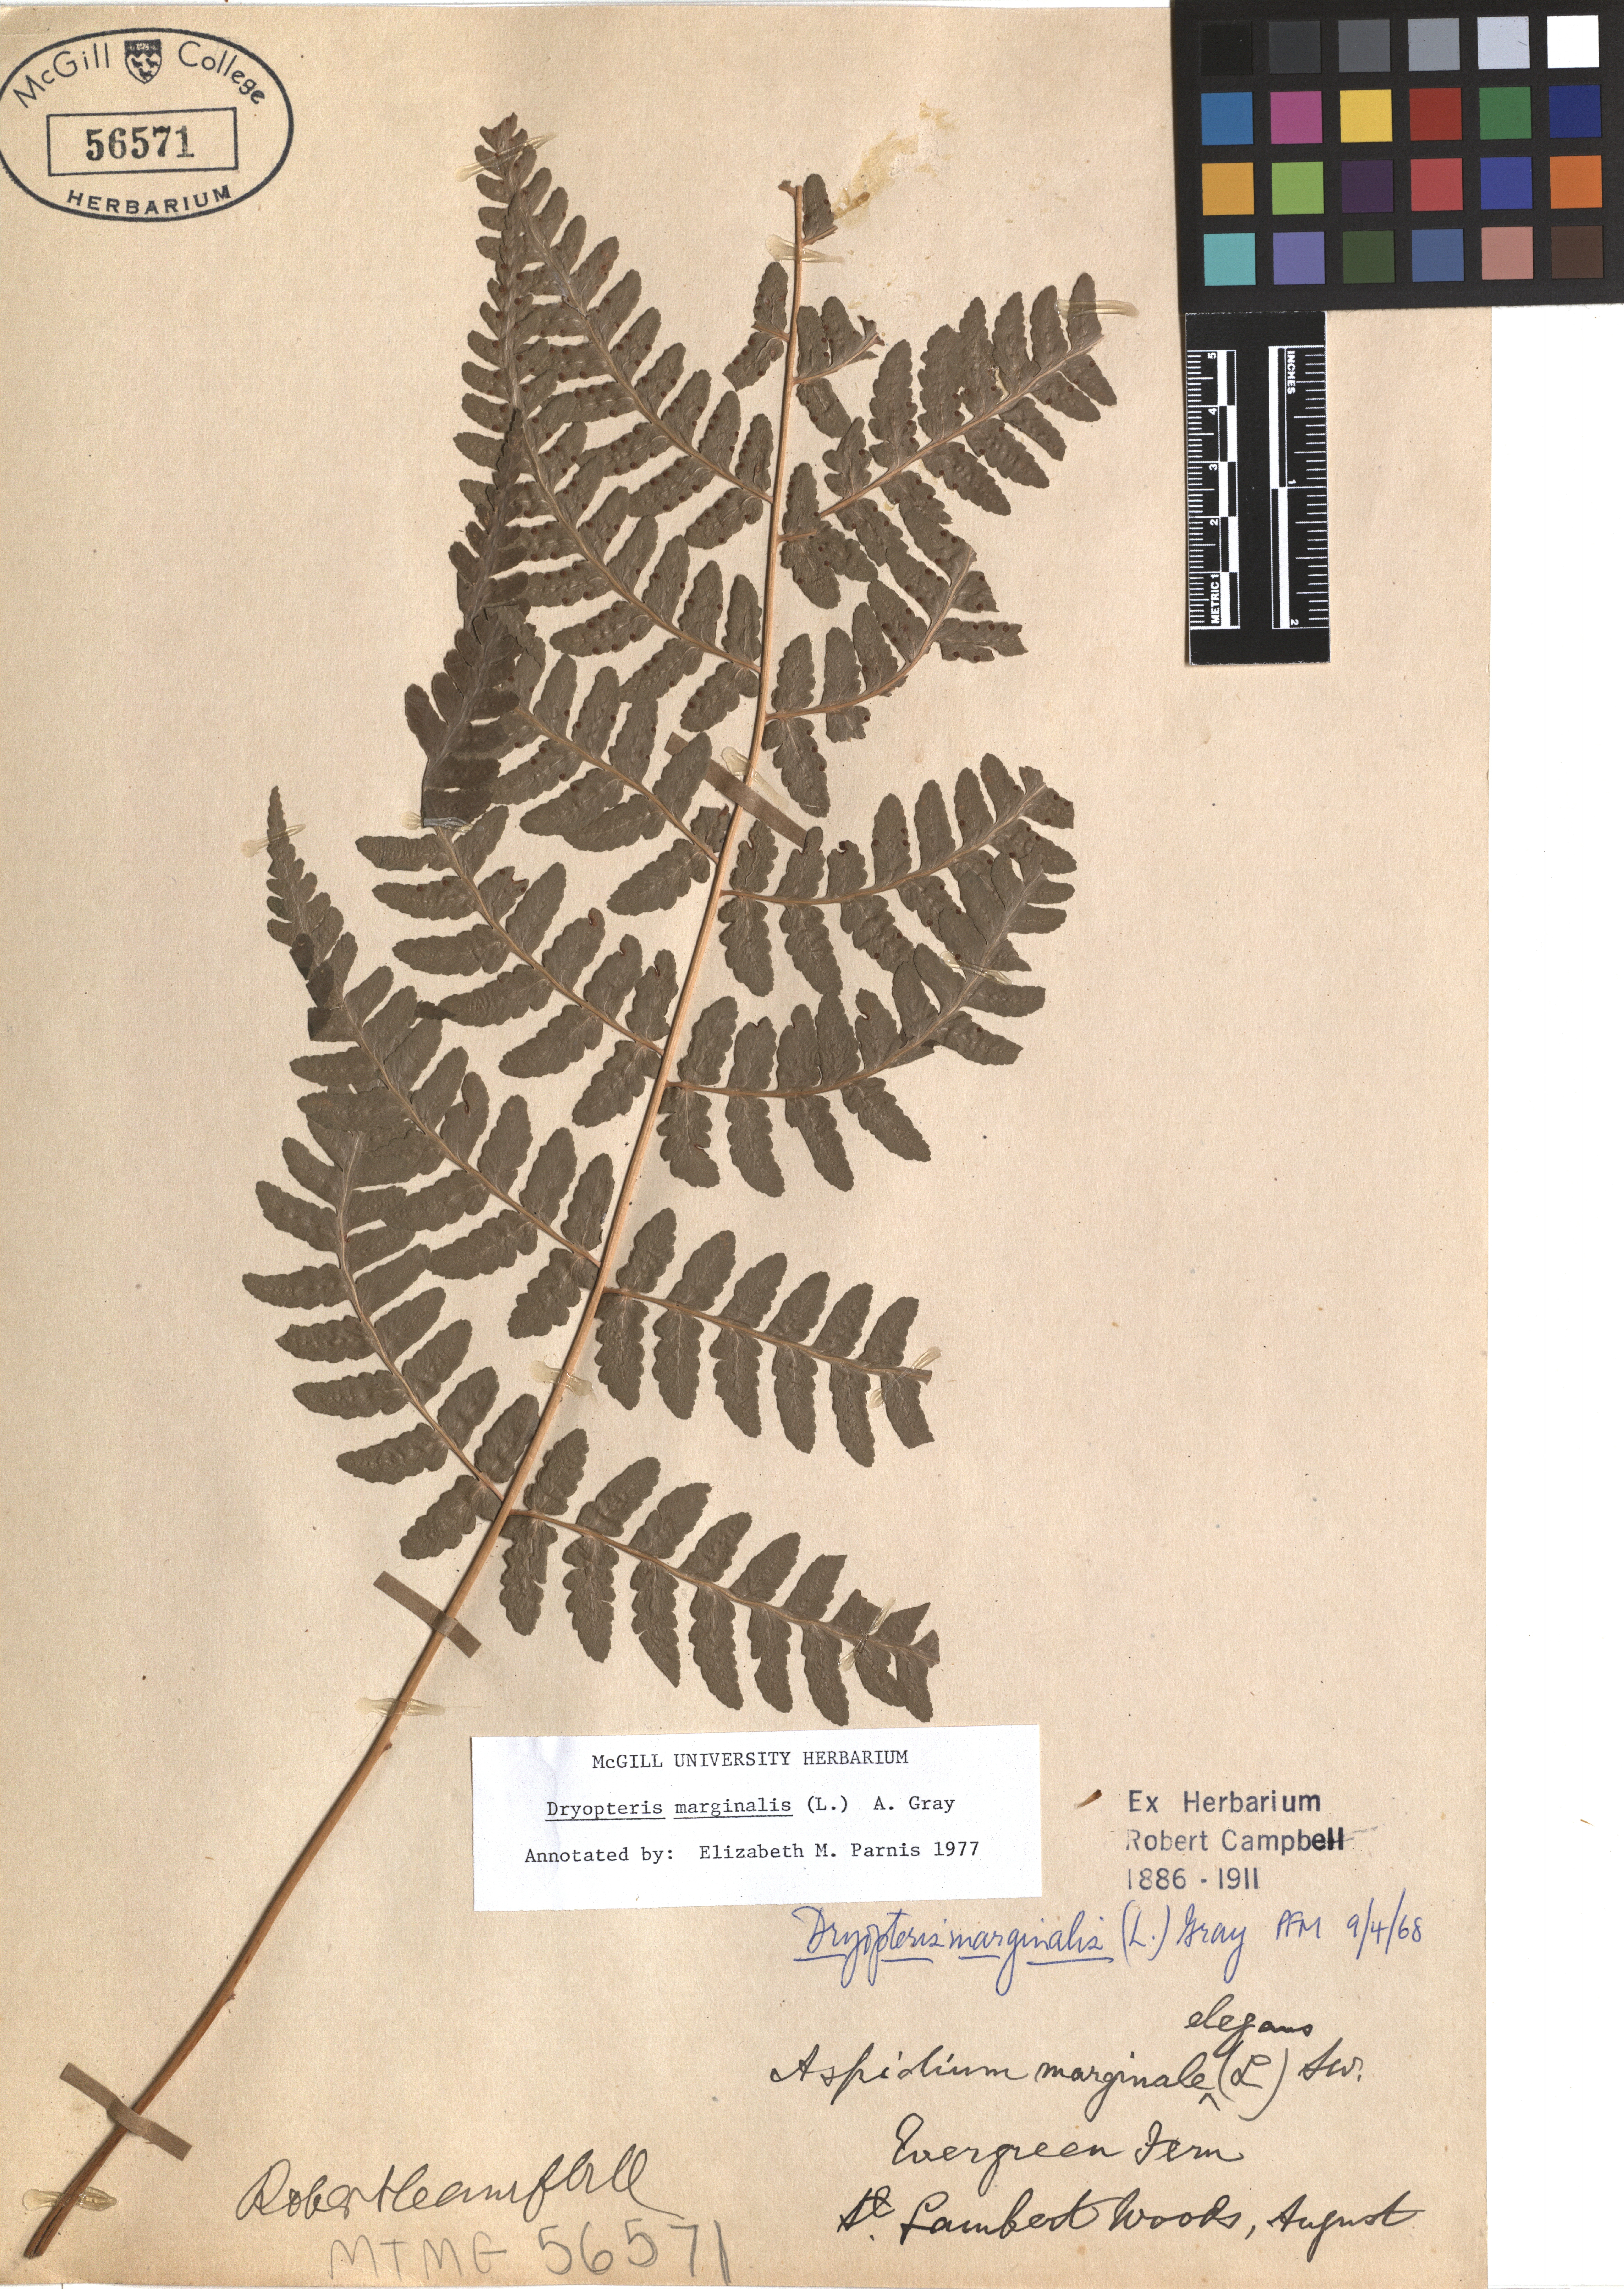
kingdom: Plantae
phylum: Tracheophyta
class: Polypodiopsida
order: Polypodiales
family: Dryopteridaceae
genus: Dryopteris
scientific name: Dryopteris marginalis
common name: Marginal wood fern
